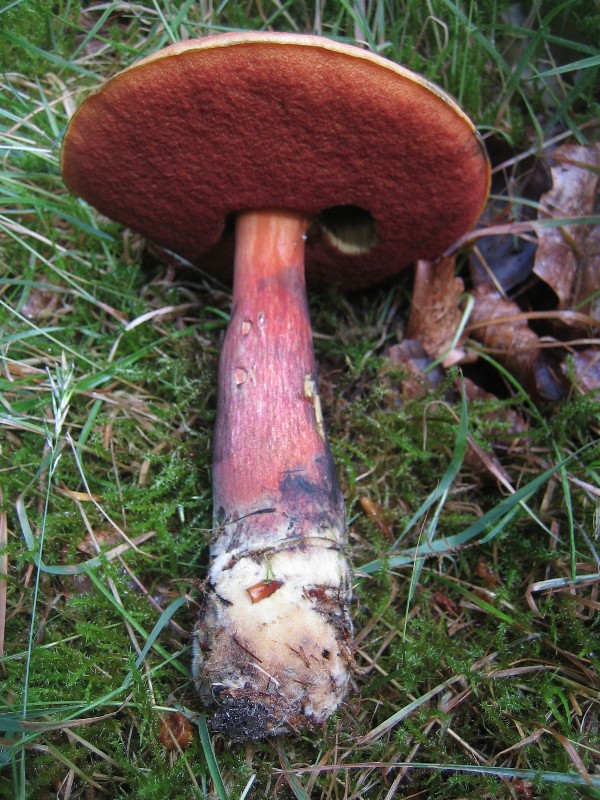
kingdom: Fungi
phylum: Basidiomycota
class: Agaricomycetes
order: Boletales
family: Boletaceae
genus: Neoboletus
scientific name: Neoboletus erythropus
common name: punktstokket indigorørhat
